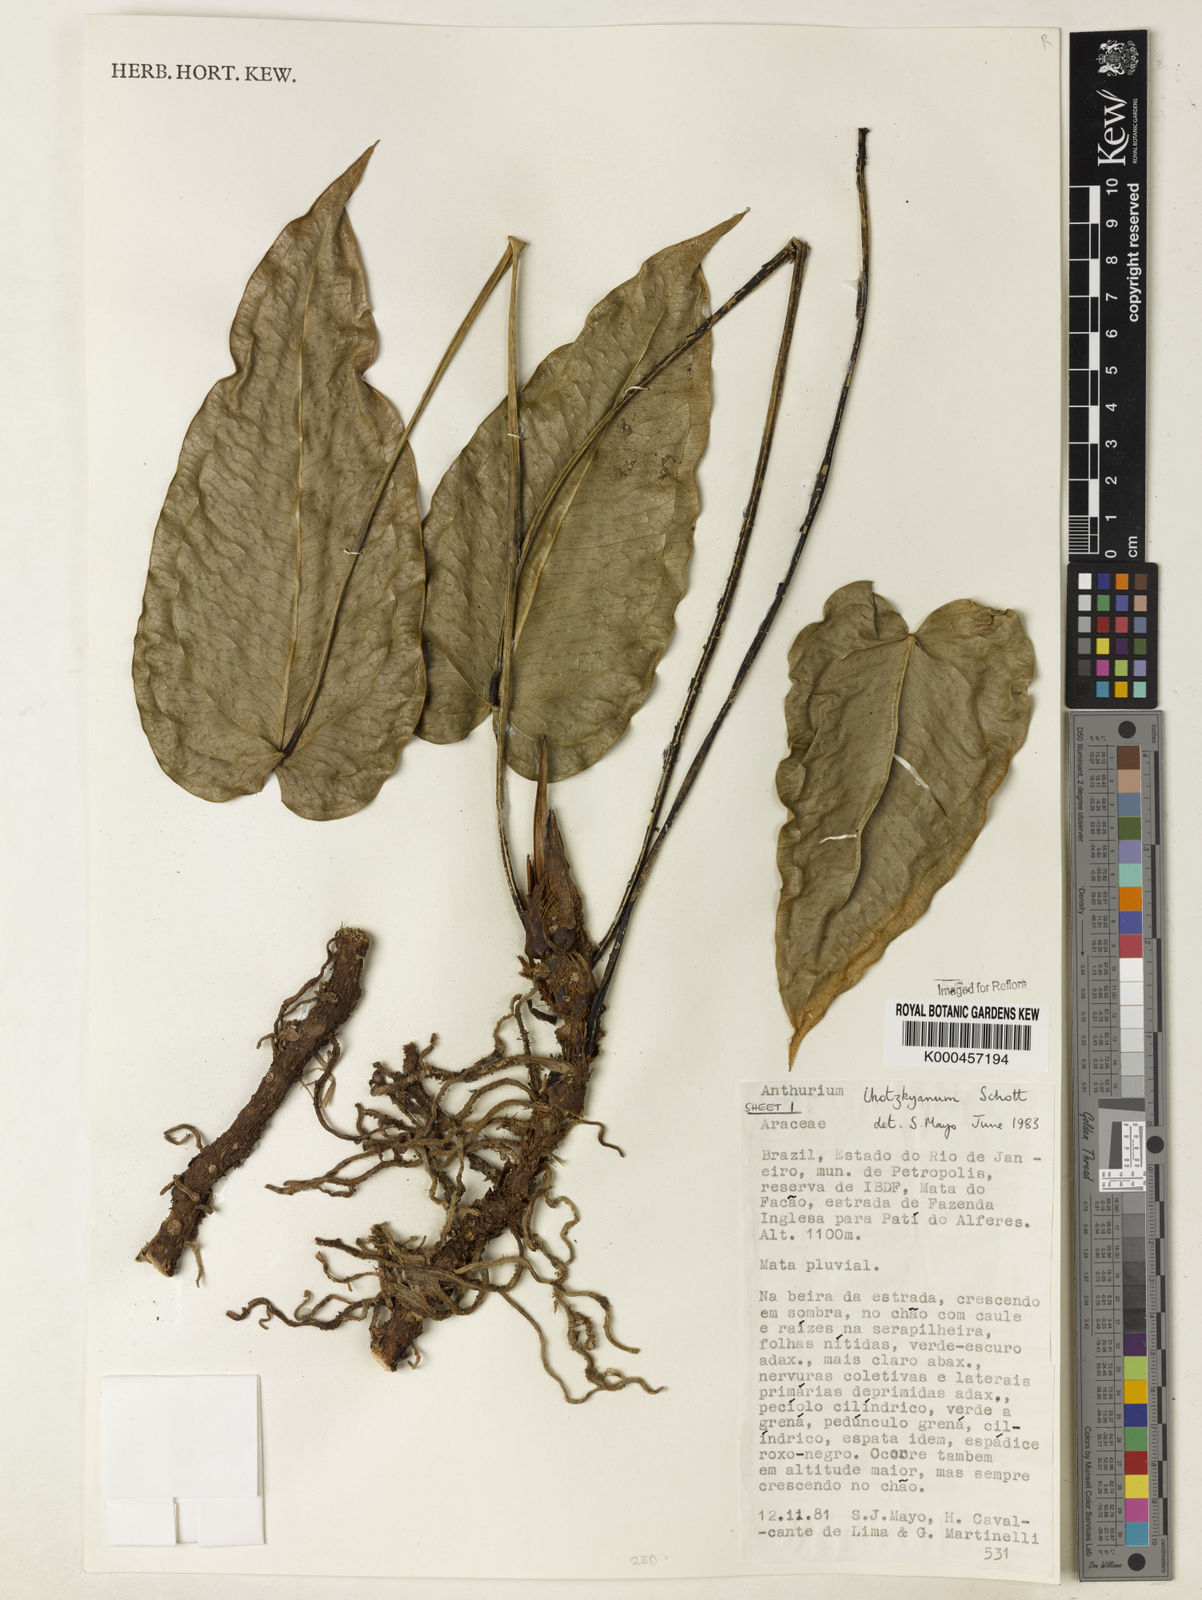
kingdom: Plantae
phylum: Tracheophyta
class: Liliopsida
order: Alismatales
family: Araceae
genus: Anthurium
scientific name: Anthurium augustinum
